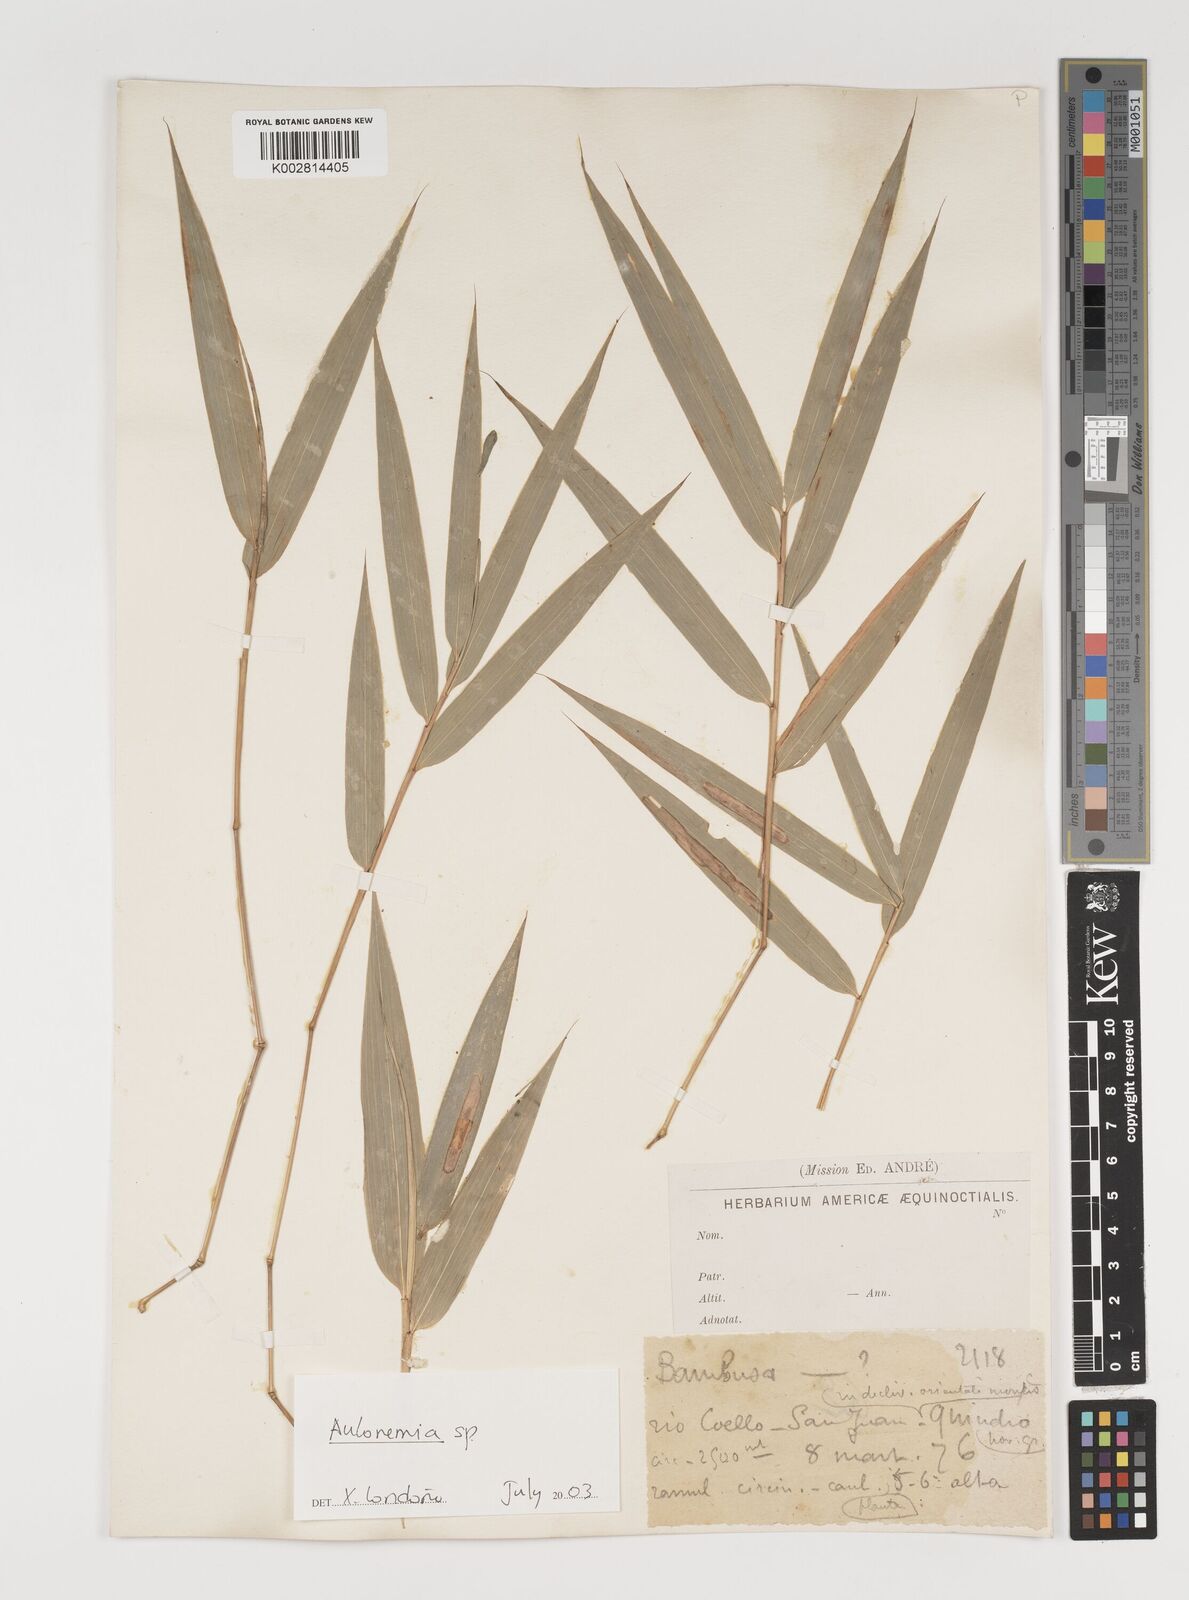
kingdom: Plantae
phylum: Tracheophyta
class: Liliopsida
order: Poales
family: Poaceae
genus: Aulonemia
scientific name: Aulonemia
